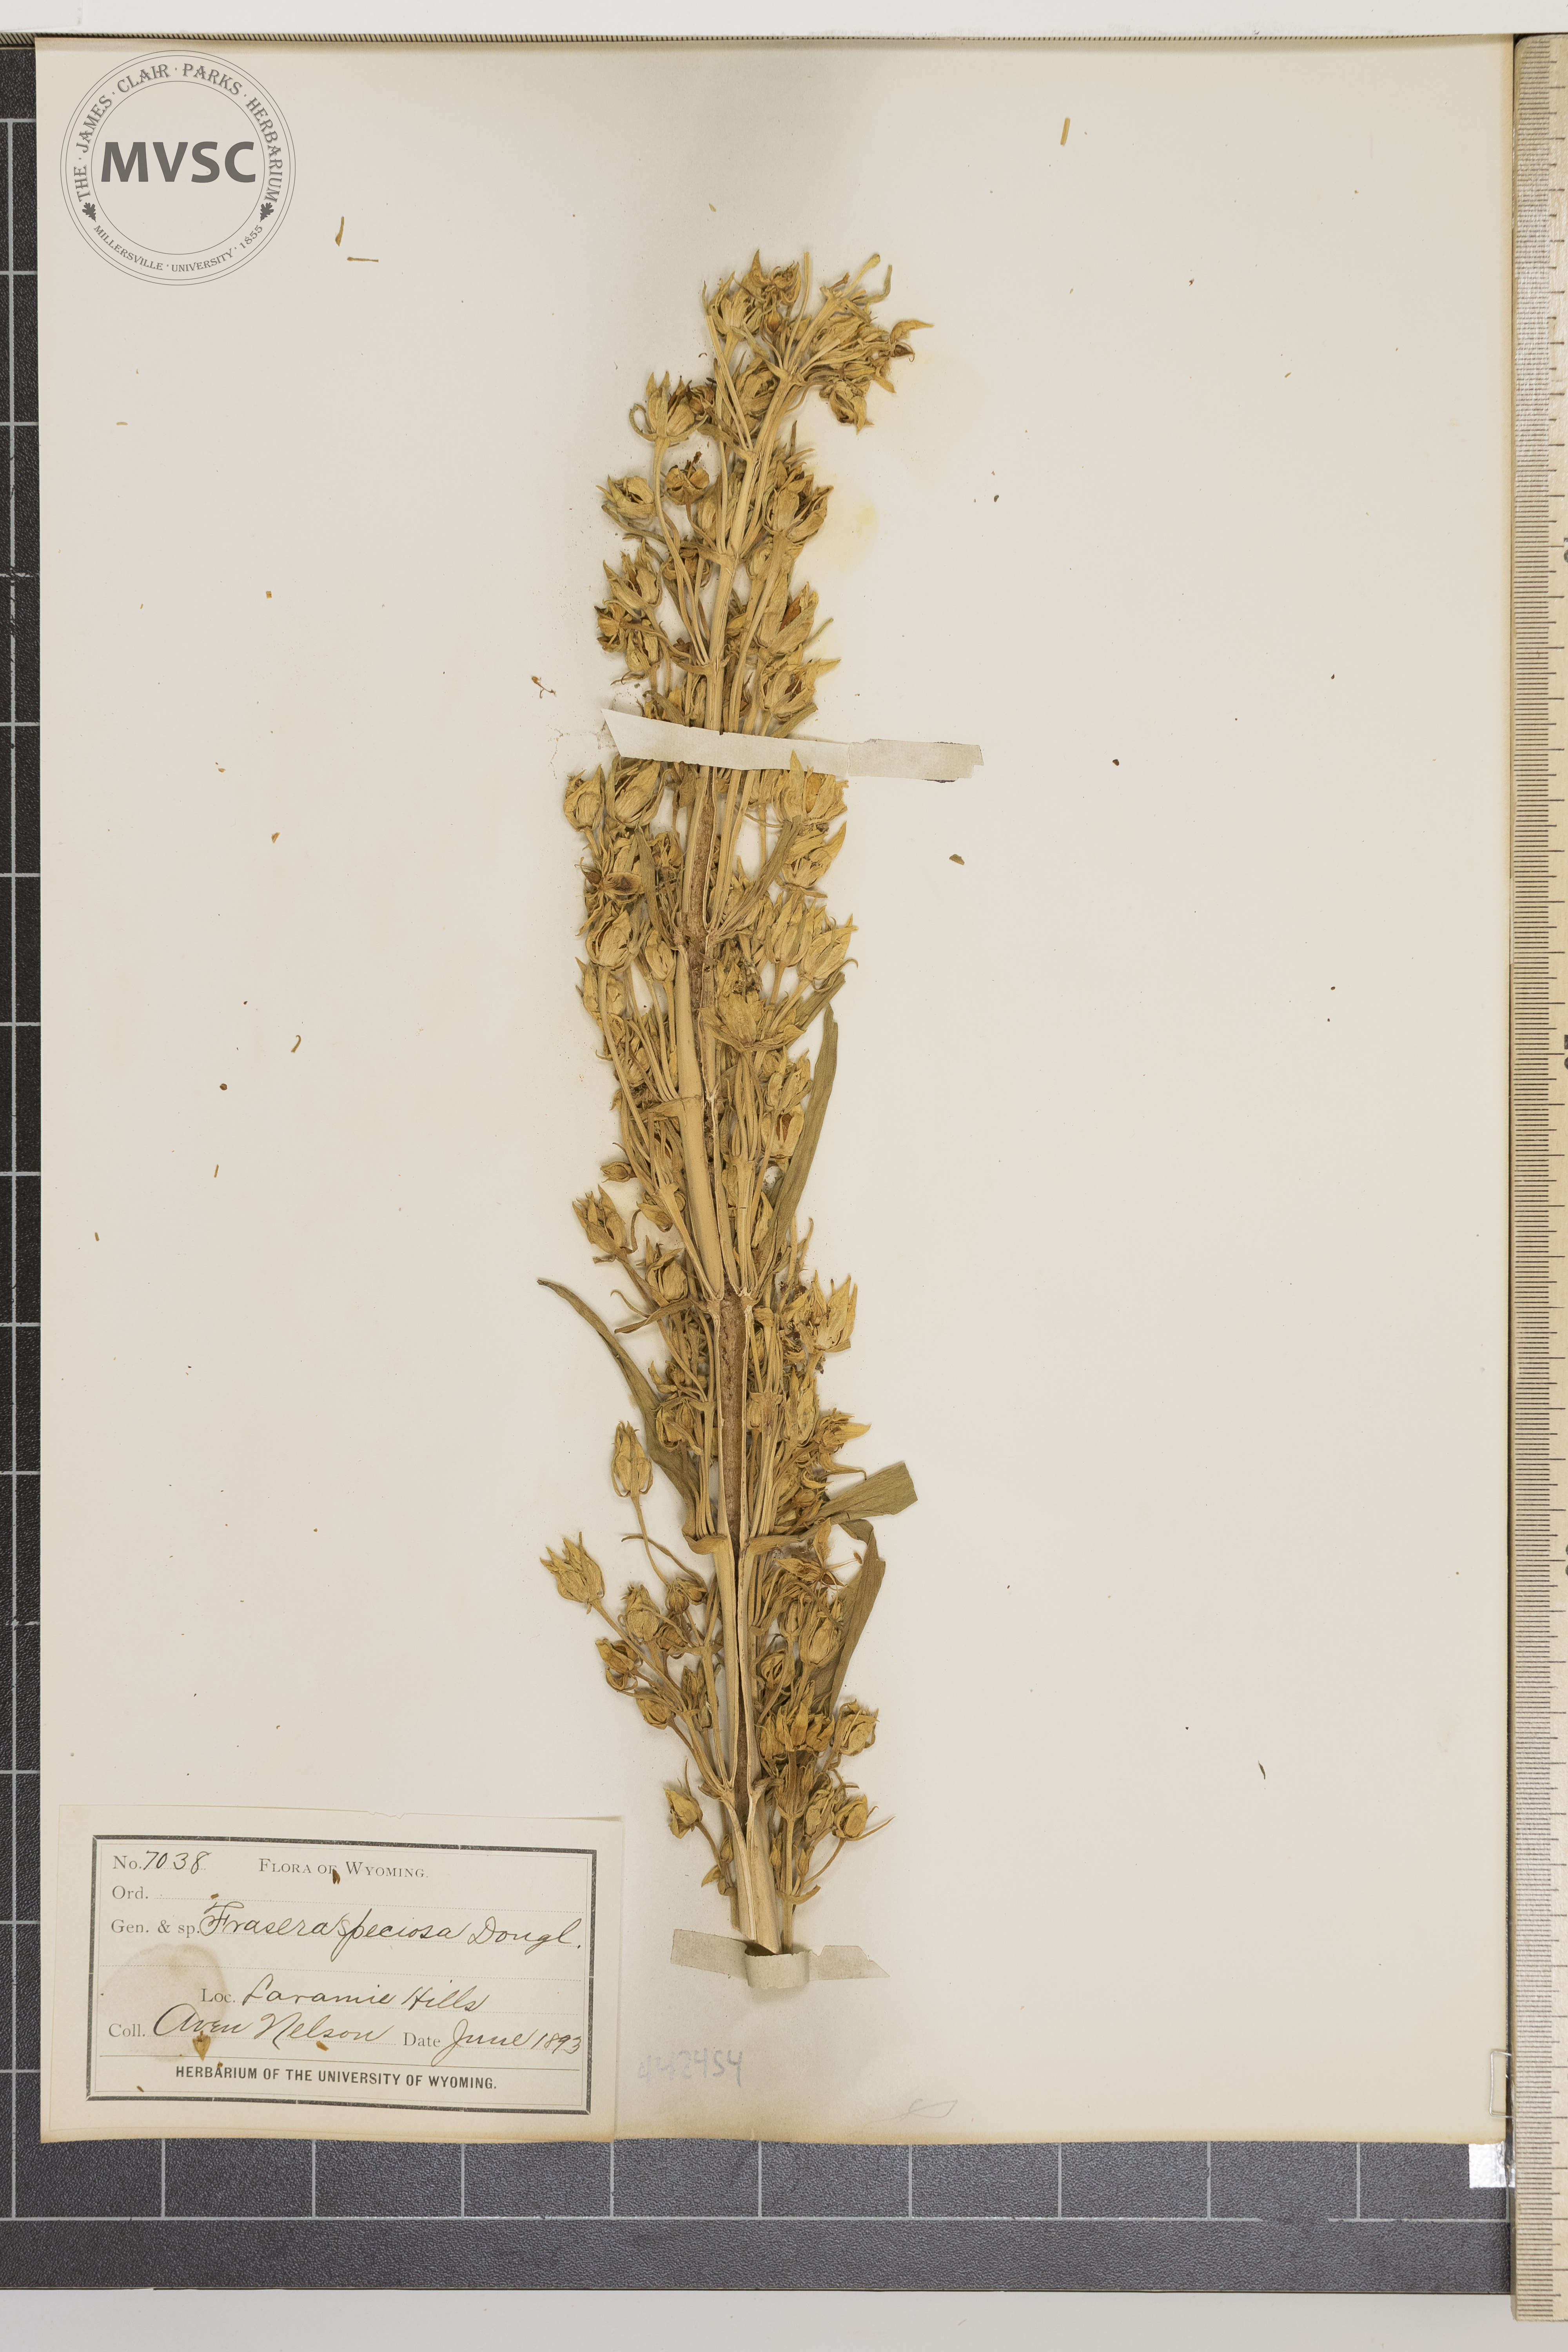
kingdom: Plantae
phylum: Tracheophyta
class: Magnoliopsida
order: Gentianales
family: Gentianaceae
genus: Frasera
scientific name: Frasera speciosa
